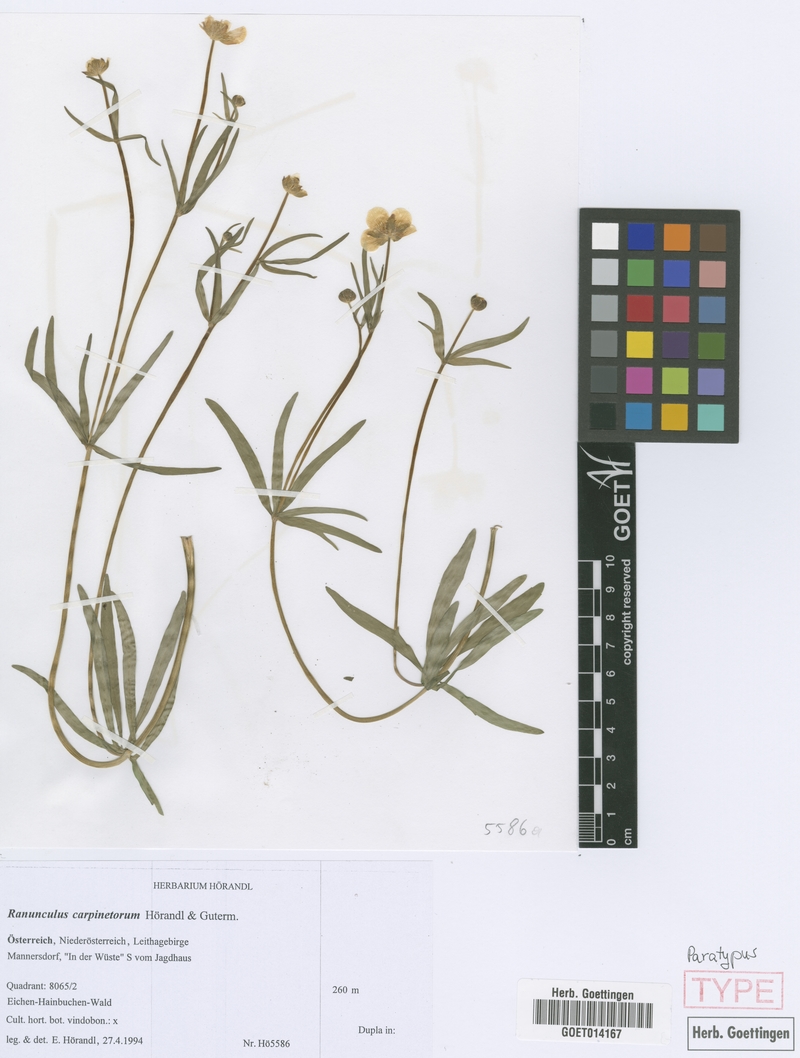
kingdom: Plantae
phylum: Tracheophyta
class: Magnoliopsida
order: Ranunculales
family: Ranunculaceae
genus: Ranunculus
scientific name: Ranunculus carpinetorum
